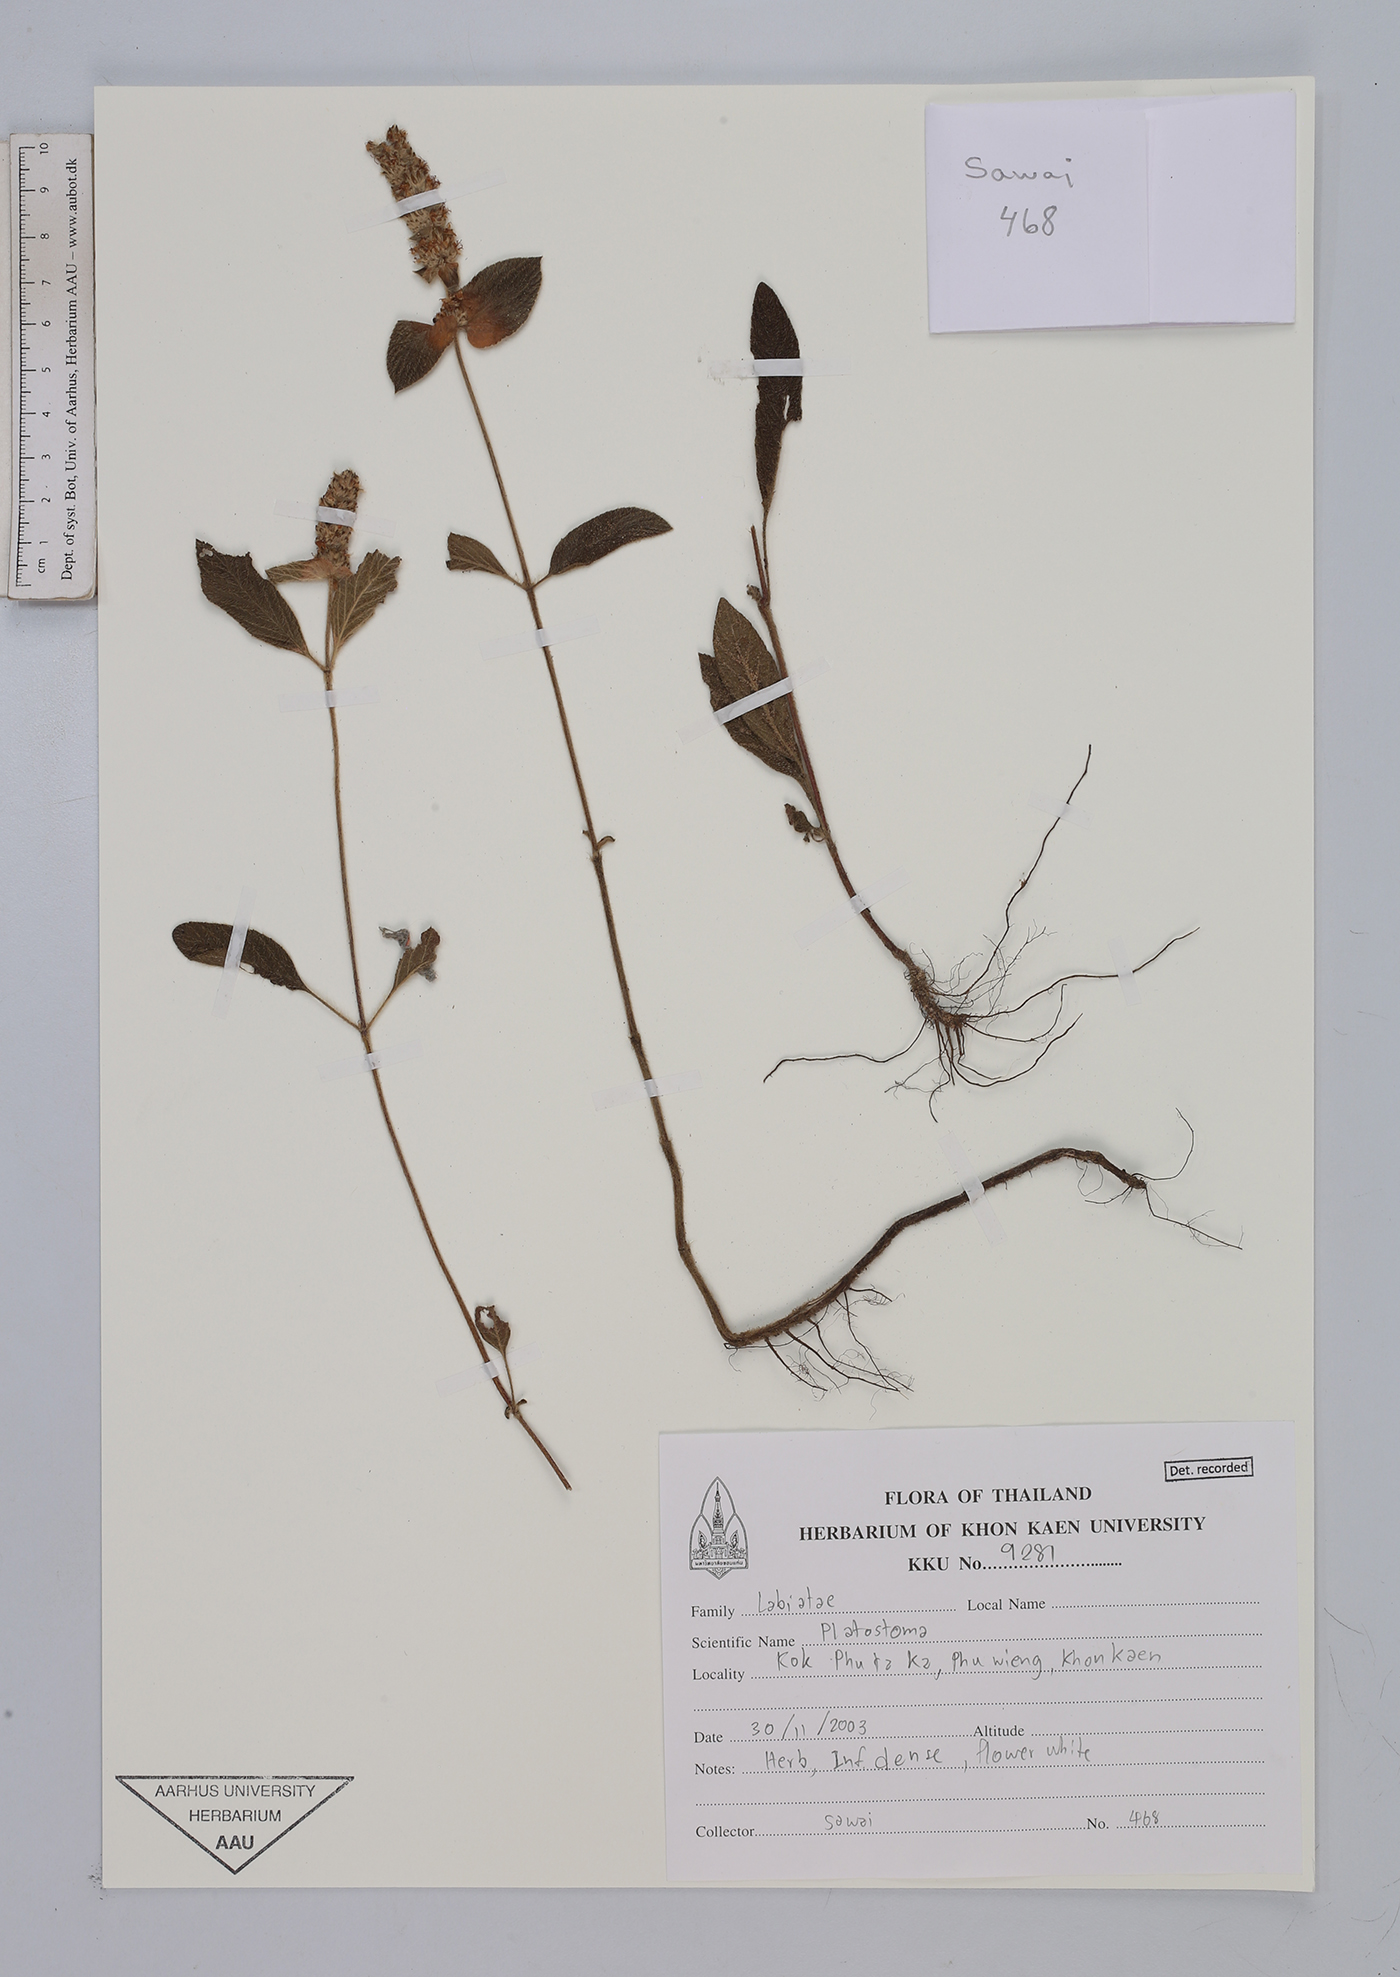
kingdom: Plantae
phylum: Tracheophyta
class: Magnoliopsida
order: Lamiales
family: Lamiaceae
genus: Platostoma
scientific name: Platostoma cochinchinense
